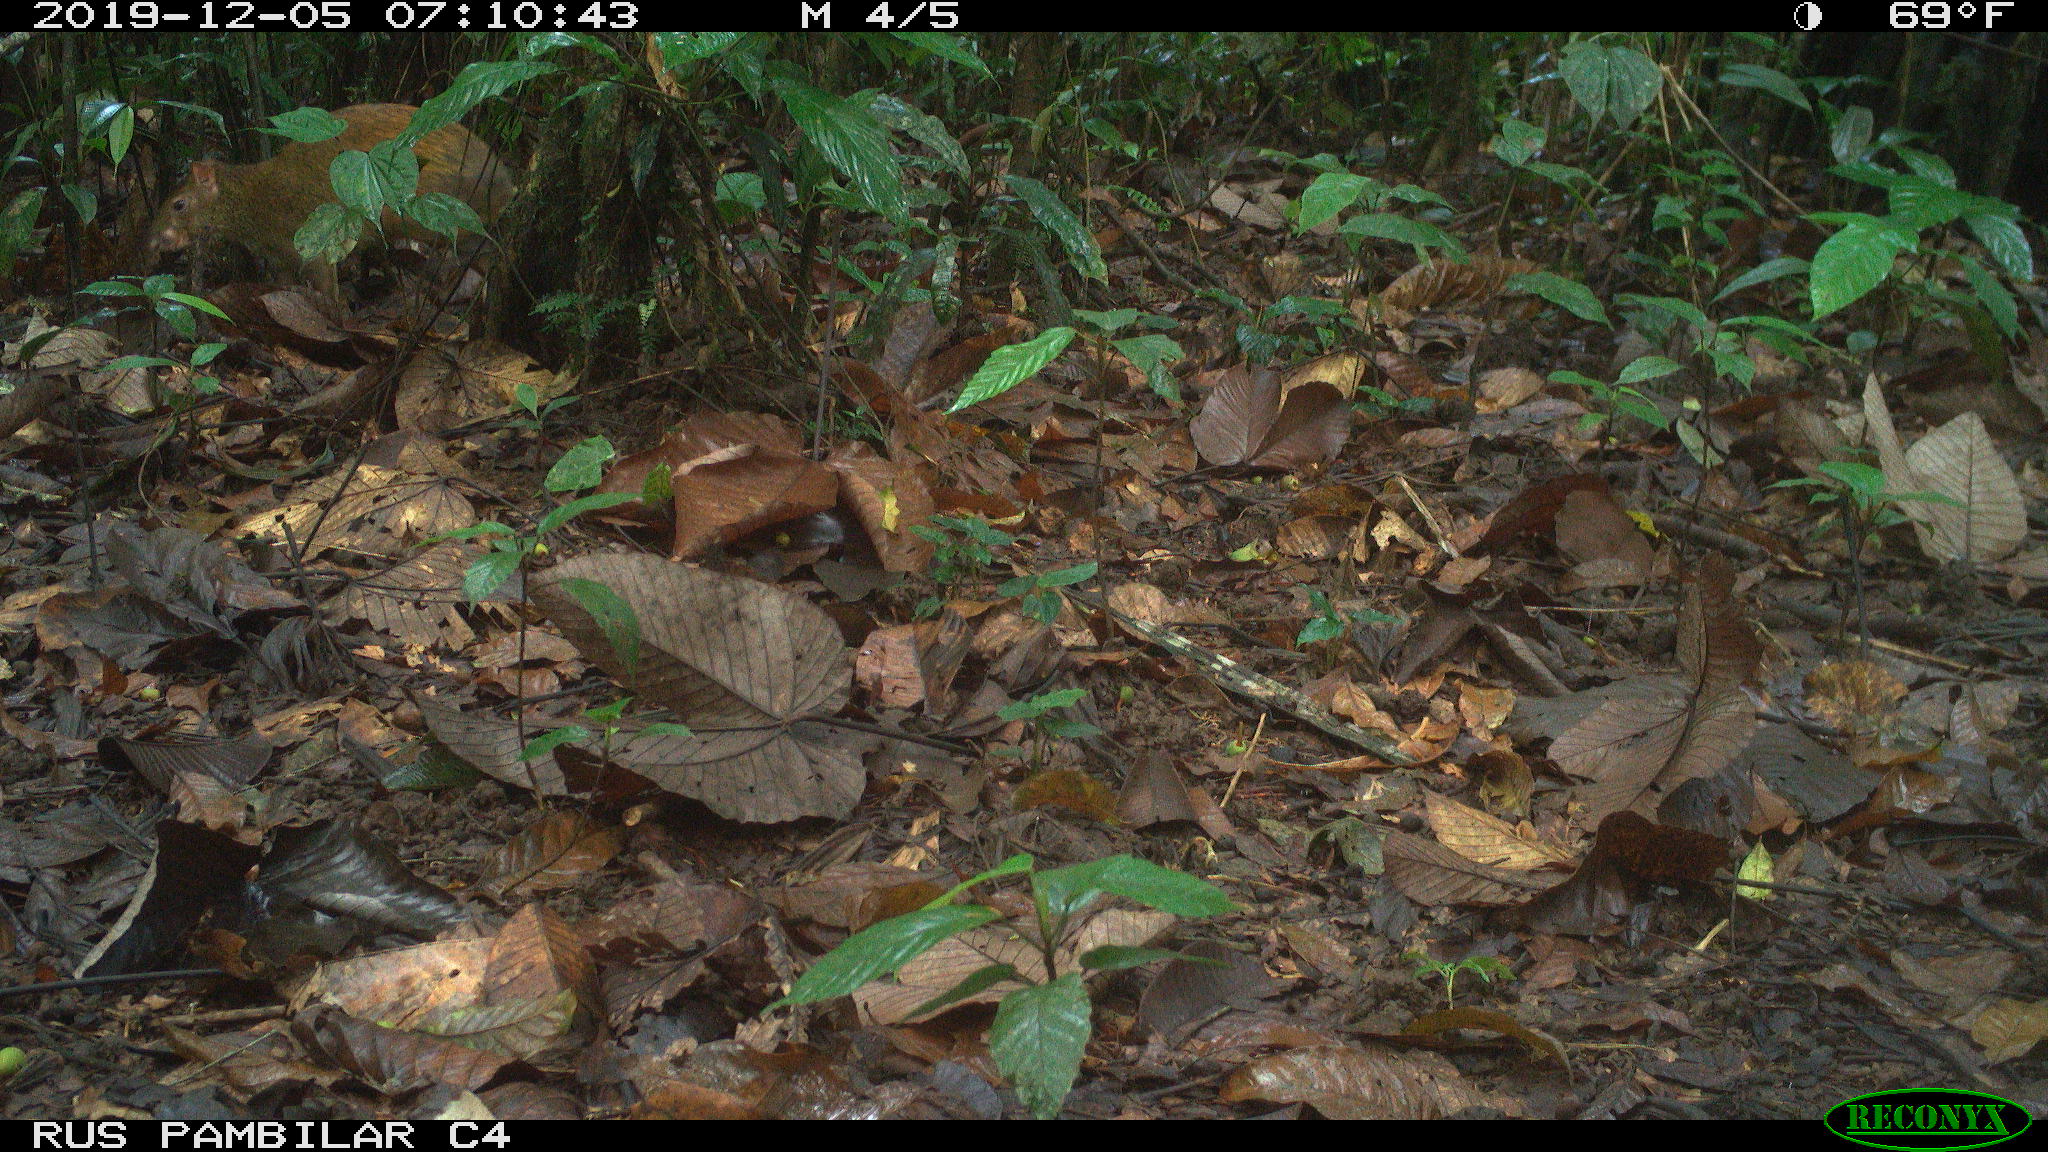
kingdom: Animalia
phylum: Chordata
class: Mammalia
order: Rodentia
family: Dasyproctidae
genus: Dasyprocta
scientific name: Dasyprocta punctata
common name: Central american agouti
